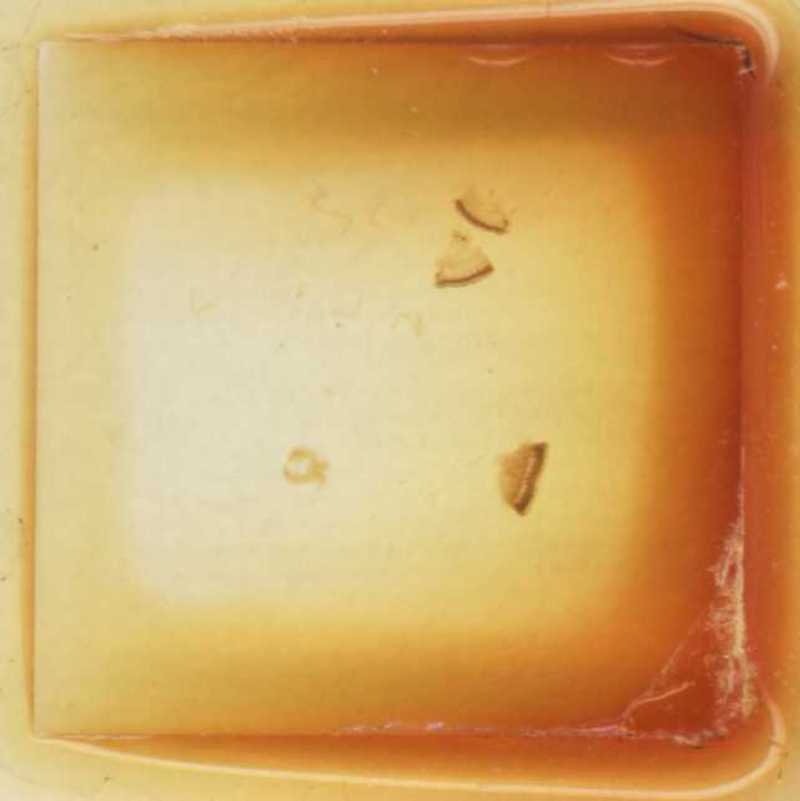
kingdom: Animalia
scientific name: Animalia
